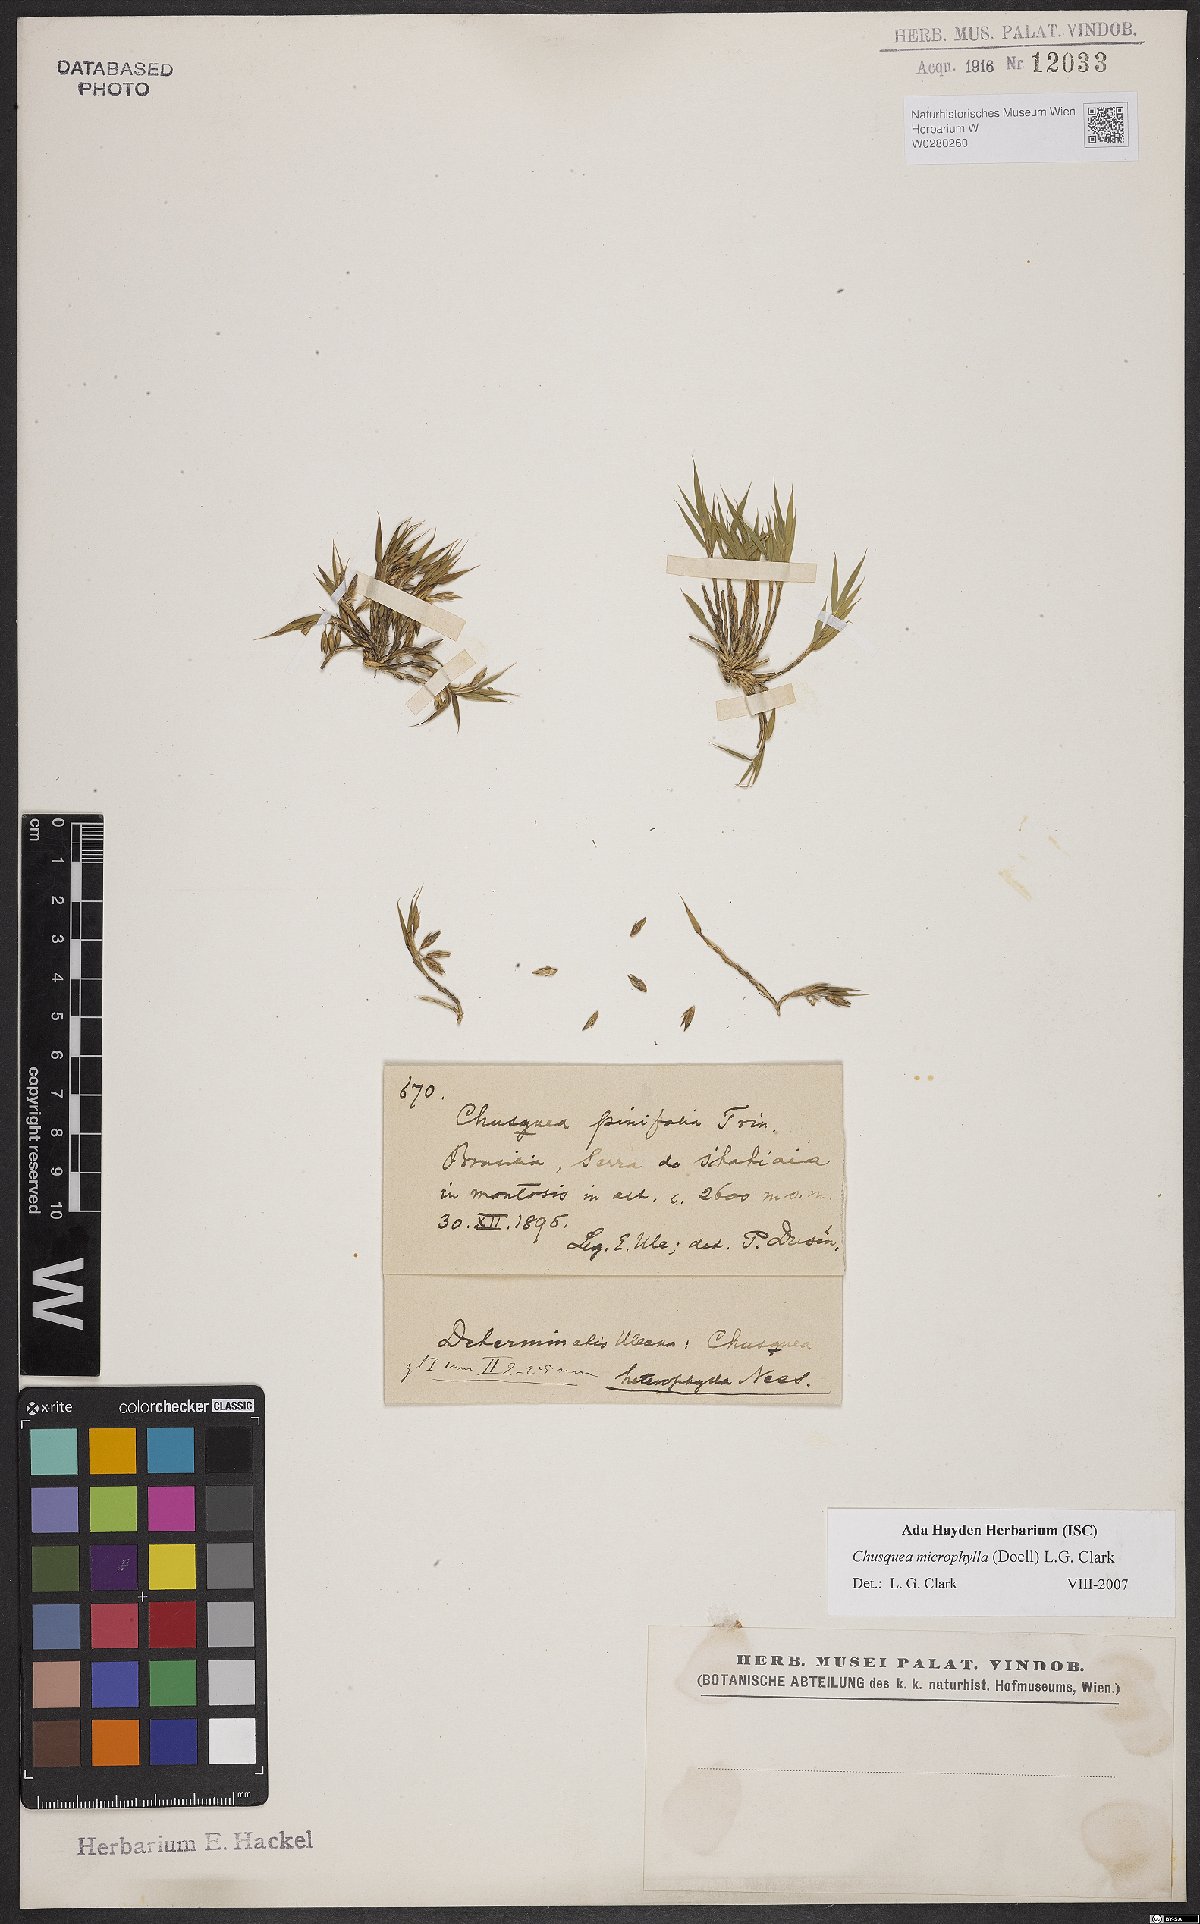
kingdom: Plantae
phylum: Tracheophyta
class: Liliopsida
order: Poales
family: Poaceae
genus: Chusquea
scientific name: Chusquea microphylla
